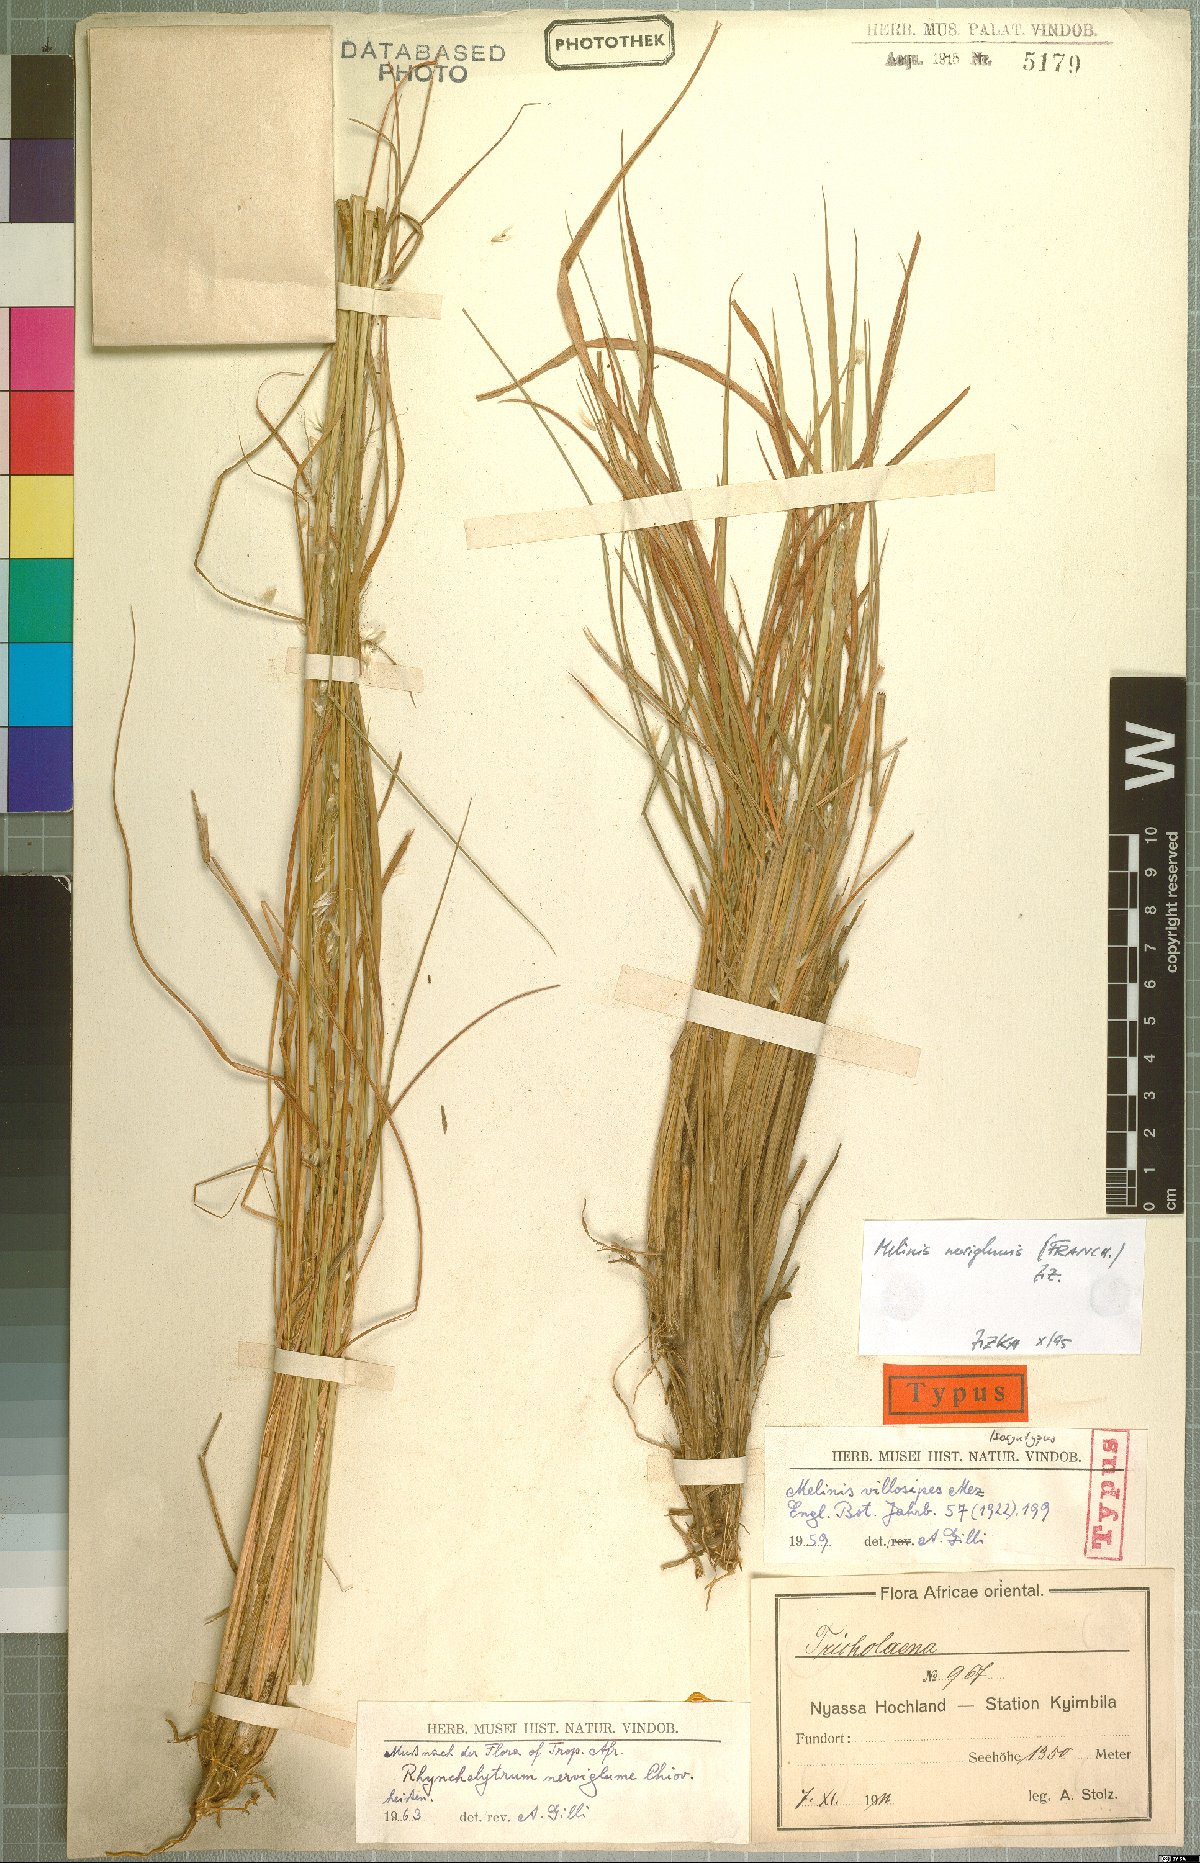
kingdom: Plantae
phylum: Tracheophyta
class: Liliopsida
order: Poales
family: Poaceae
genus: Melinis
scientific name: Melinis nerviglumis
